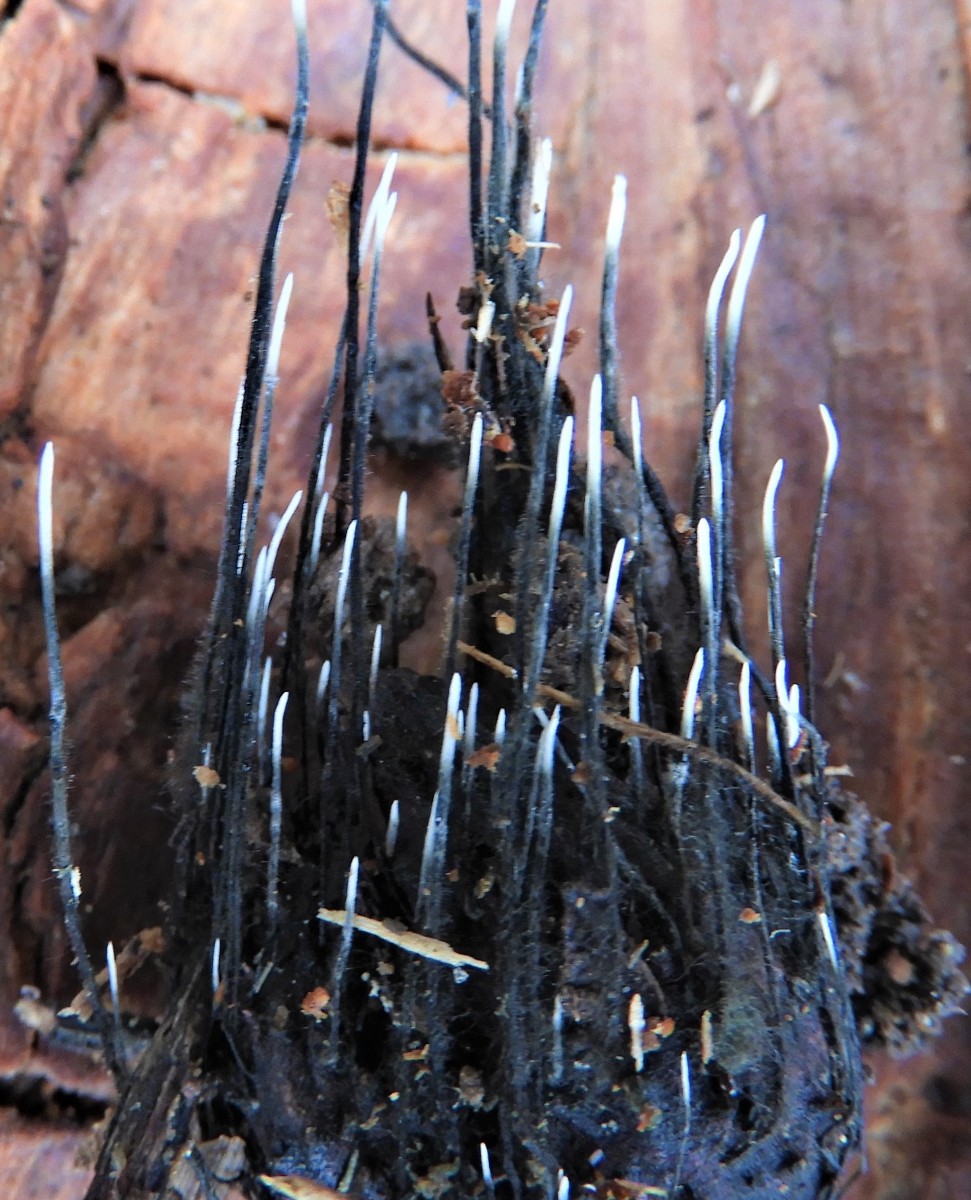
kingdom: Fungi
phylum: Ascomycota
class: Sordariomycetes
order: Xylariales
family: Xylariaceae
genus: Xylaria
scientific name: Xylaria carpophila
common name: bogskål-stødsvamp
